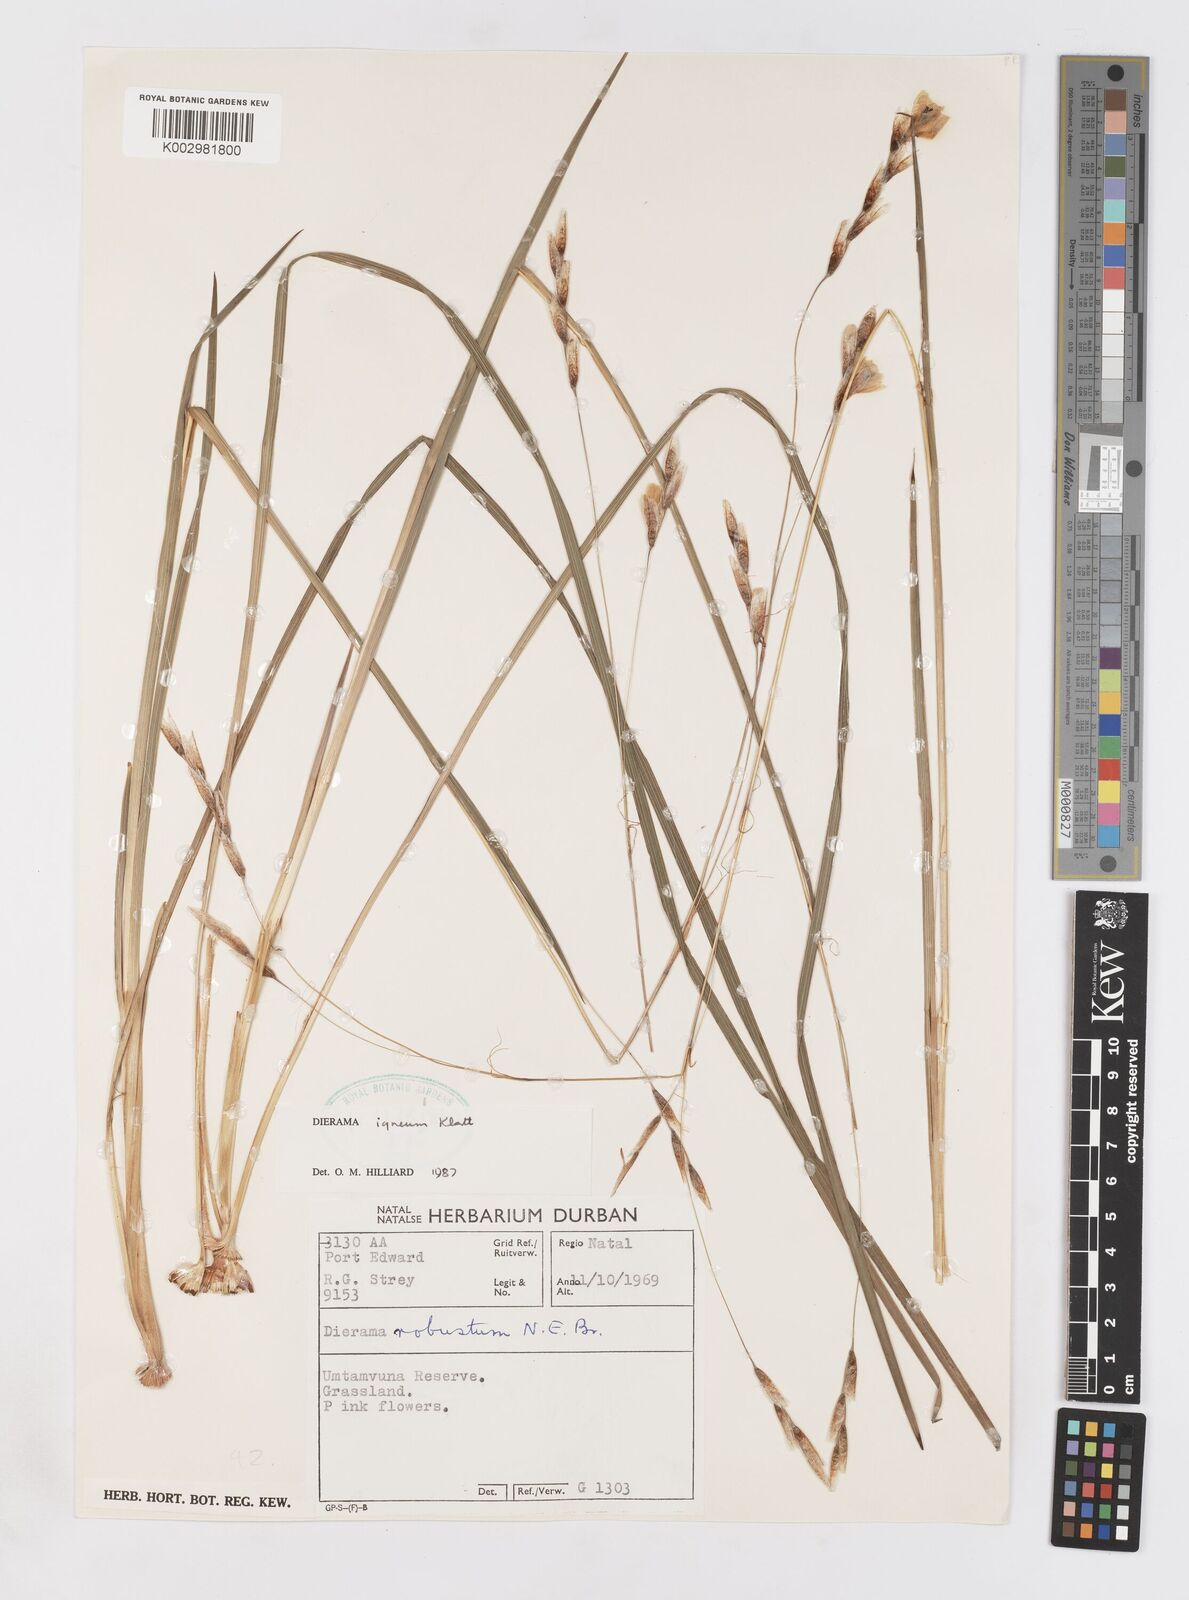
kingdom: Plantae
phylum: Tracheophyta
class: Liliopsida
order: Asparagales
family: Iridaceae
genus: Dierama
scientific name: Dierama igneum
